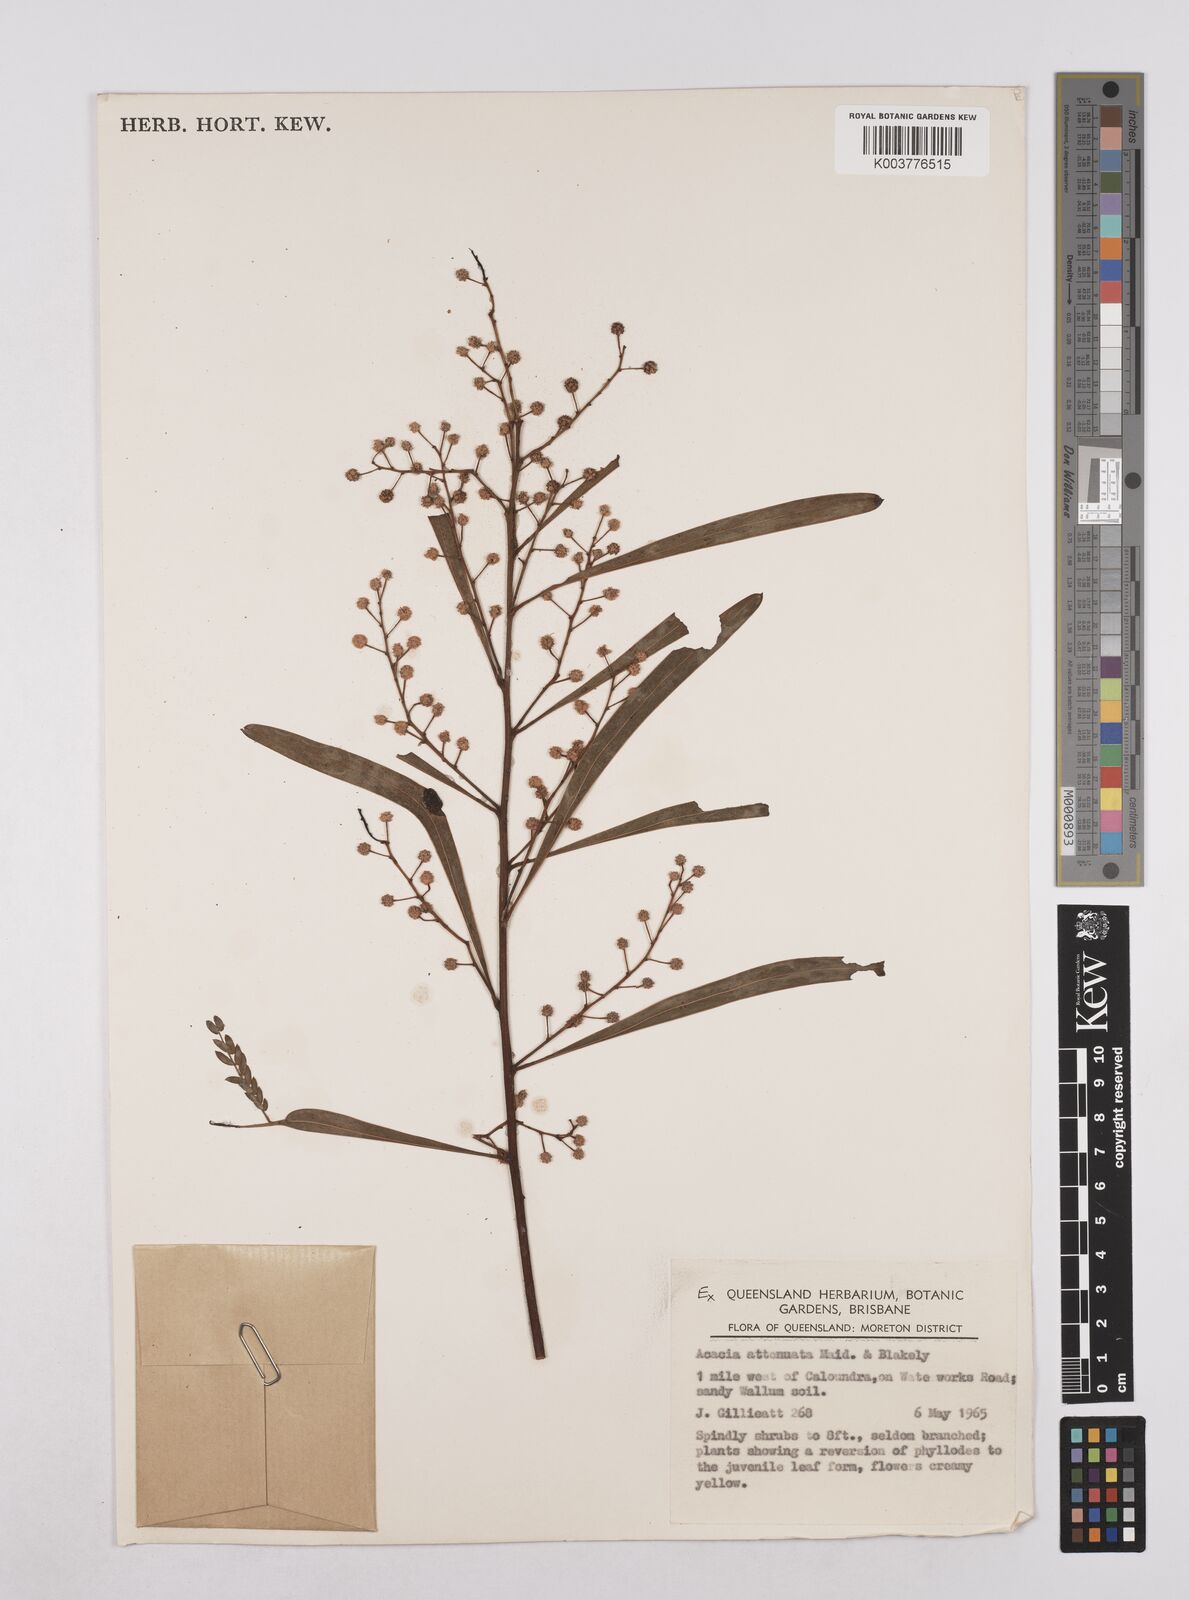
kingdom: Plantae
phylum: Tracheophyta
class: Magnoliopsida
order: Fabales
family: Fabaceae
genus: Acacia
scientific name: Acacia attenuata
